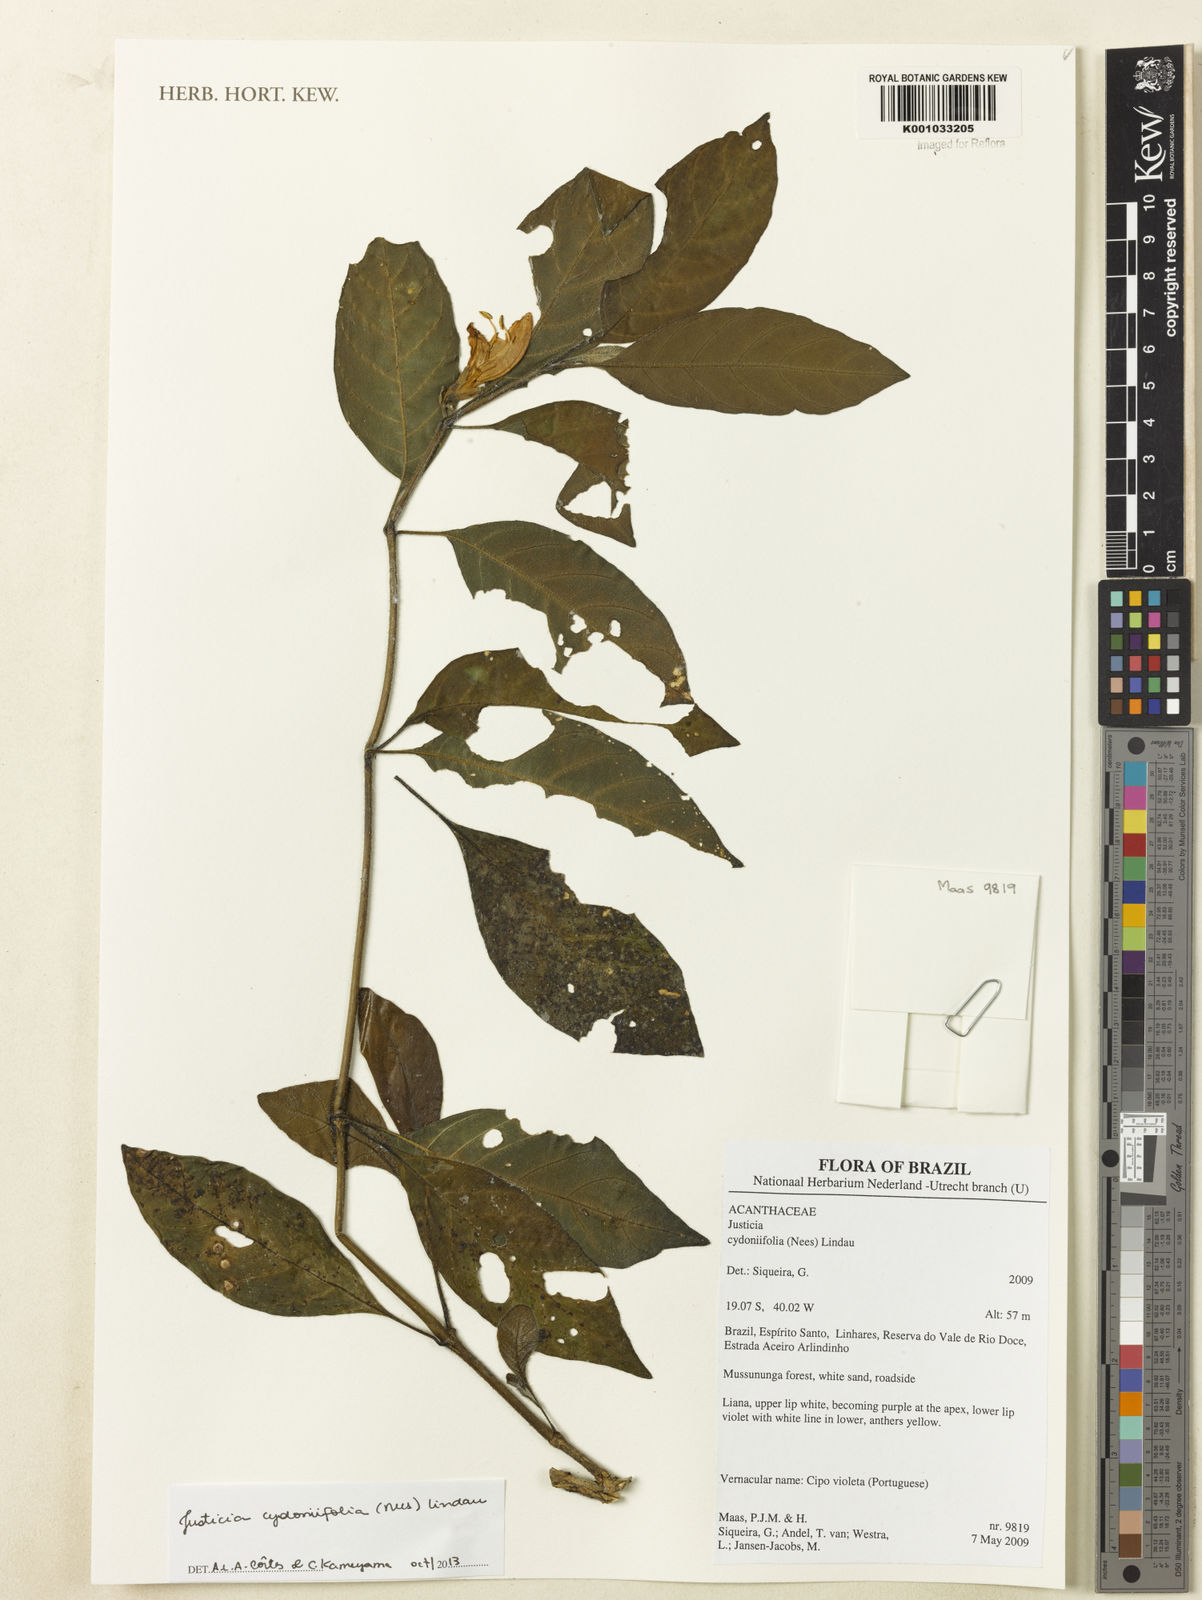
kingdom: Plantae
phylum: Tracheophyta
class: Magnoliopsida
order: Lamiales
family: Acanthaceae
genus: Justicia
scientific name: Justicia
